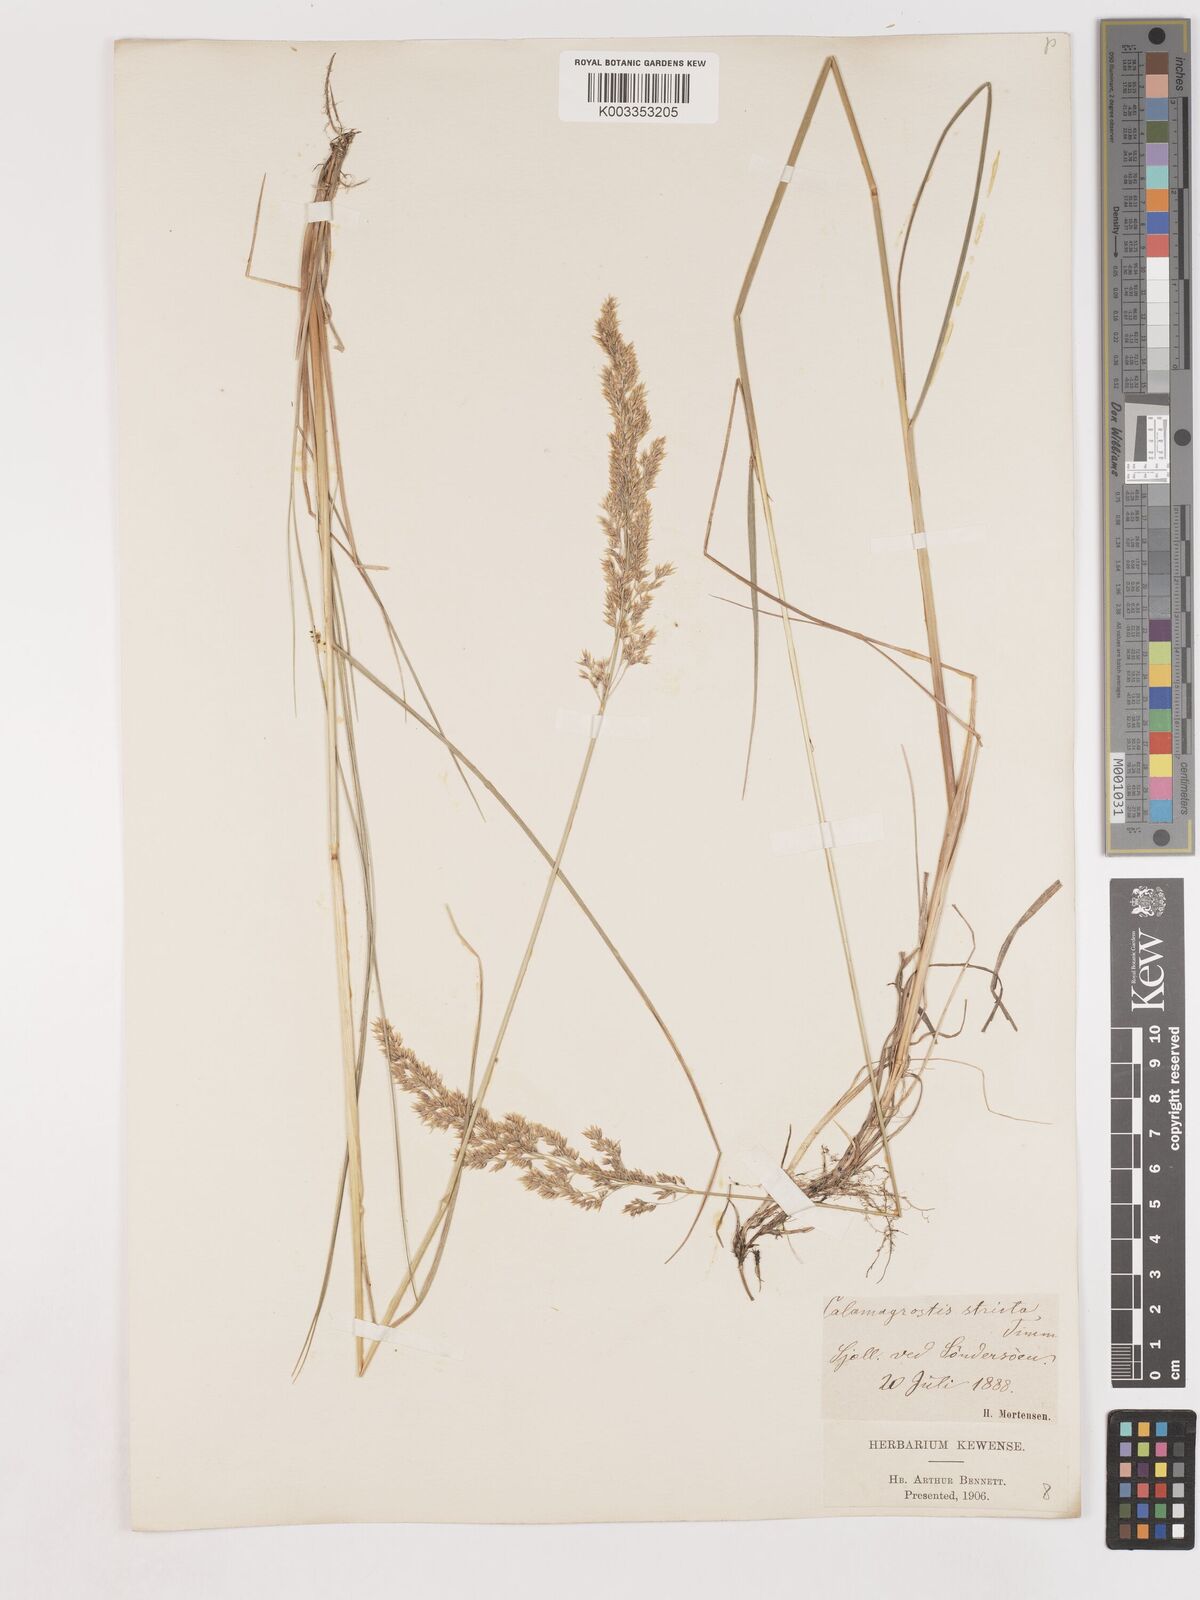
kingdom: Plantae
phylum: Tracheophyta
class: Liliopsida
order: Poales
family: Poaceae
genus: Cinnagrostis
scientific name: Cinnagrostis recta
